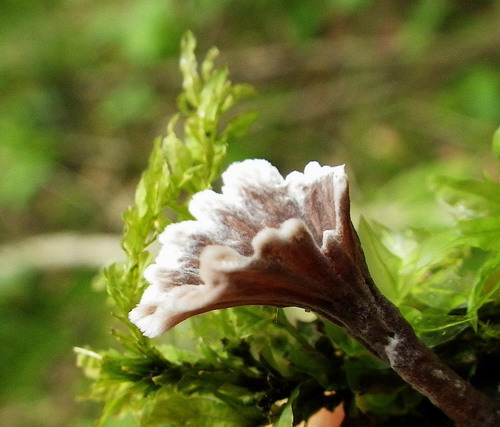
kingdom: Fungi
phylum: Basidiomycota
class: Agaricomycetes
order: Thelephorales
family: Thelephoraceae
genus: Thelephora
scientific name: Thelephora caryophyllea
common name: tragt-frynsesvamp
